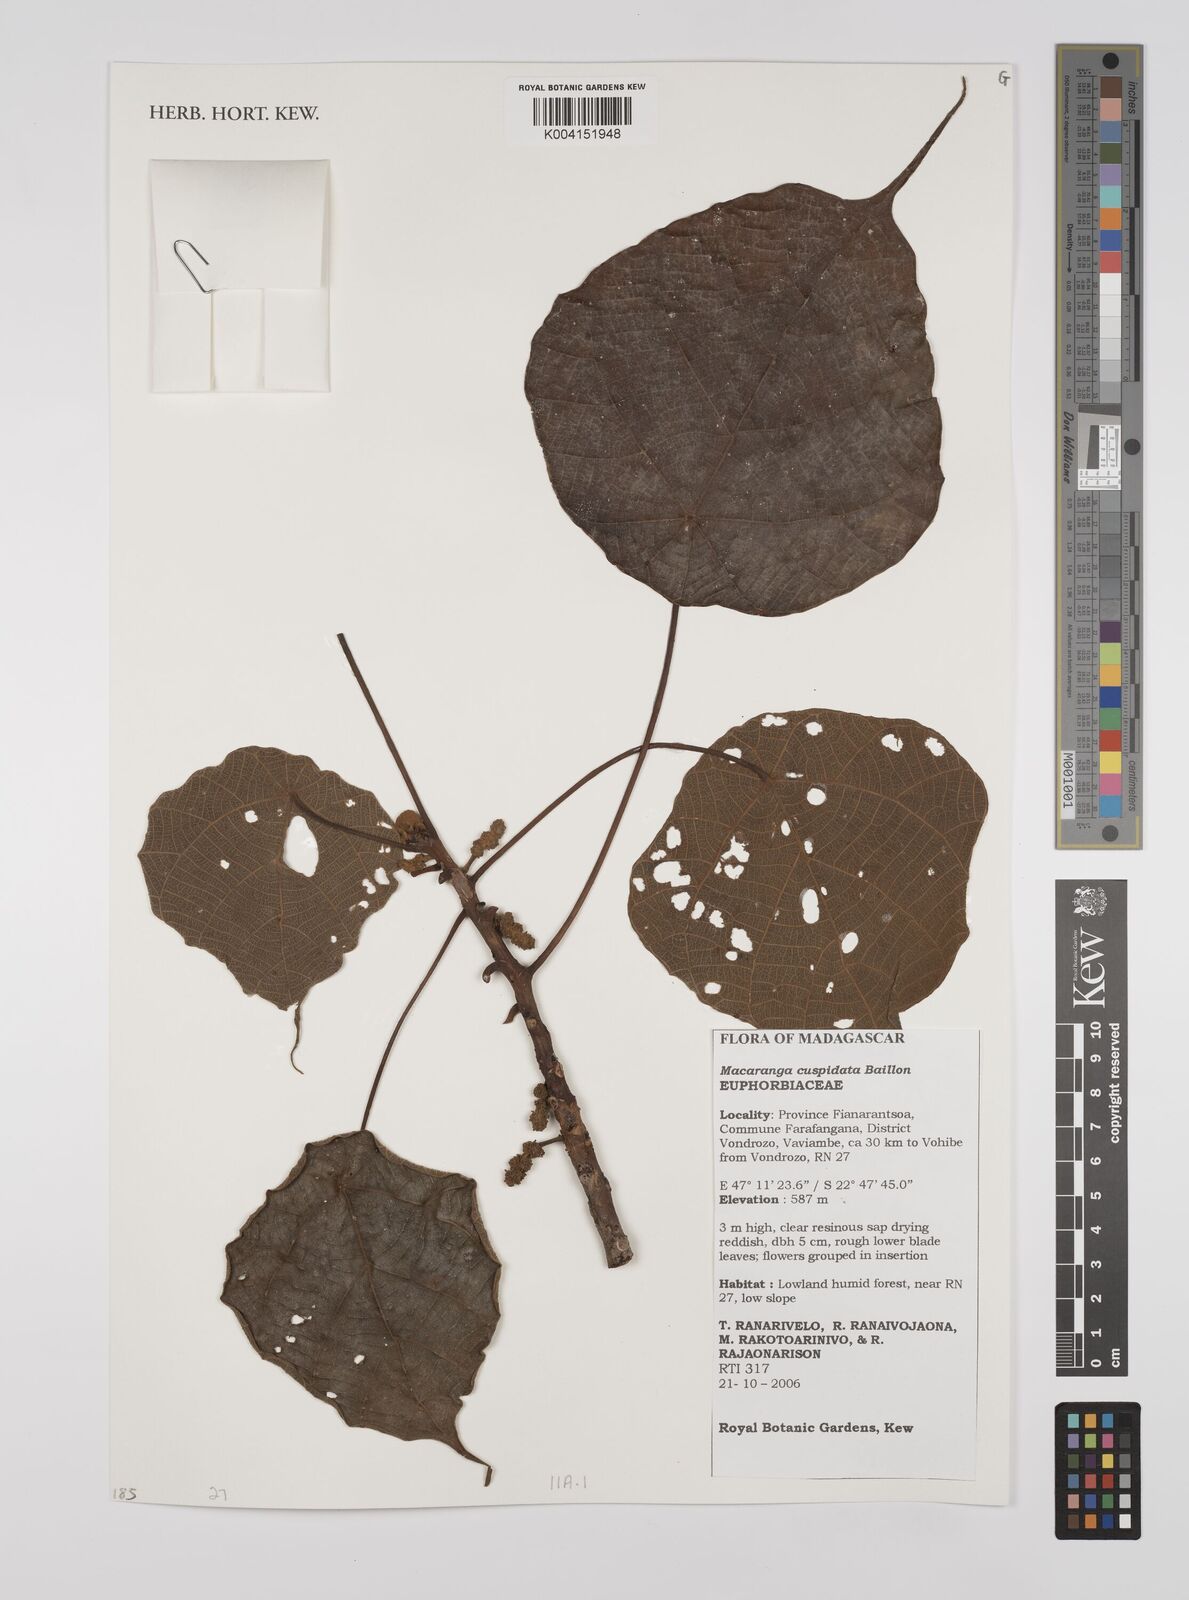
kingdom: Plantae
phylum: Tracheophyta
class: Magnoliopsida
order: Malpighiales
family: Euphorbiaceae
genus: Macaranga
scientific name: Macaranga cuspidata
